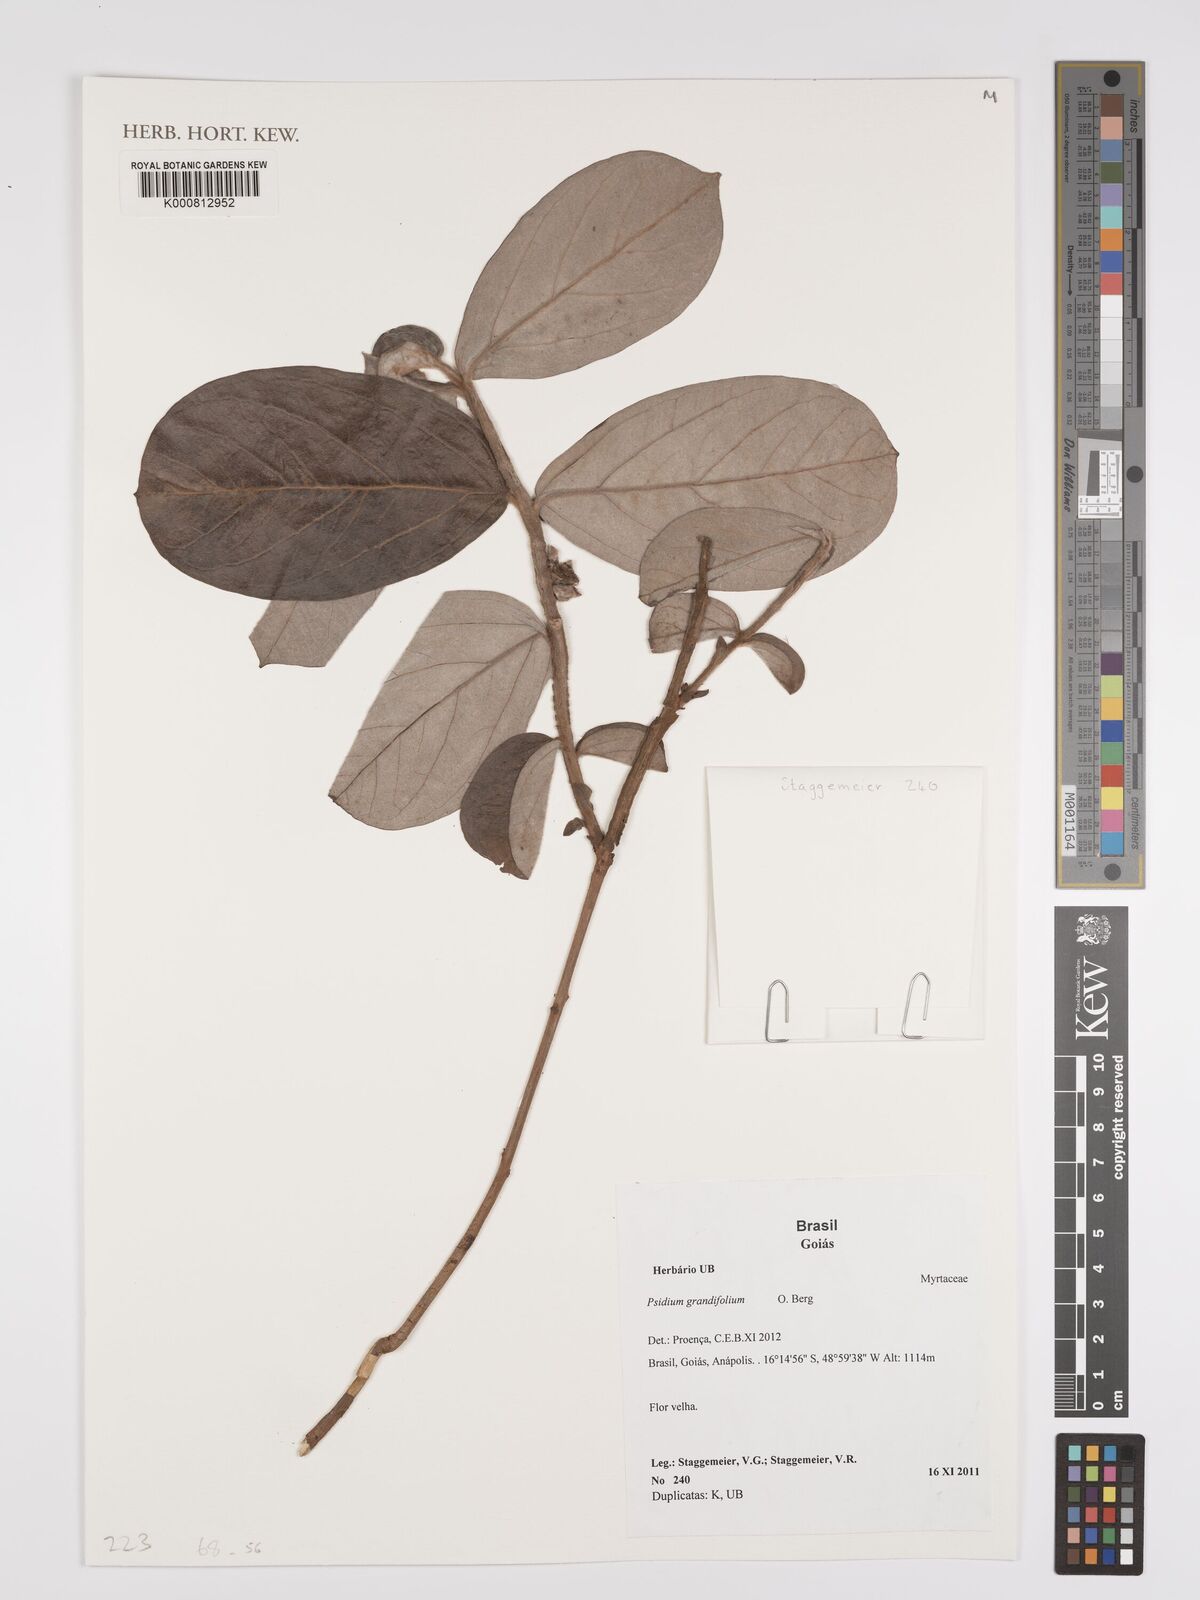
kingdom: Plantae
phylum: Tracheophyta
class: Magnoliopsida
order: Myrtales
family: Myrtaceae
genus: Psidium
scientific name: Psidium grandifolium
